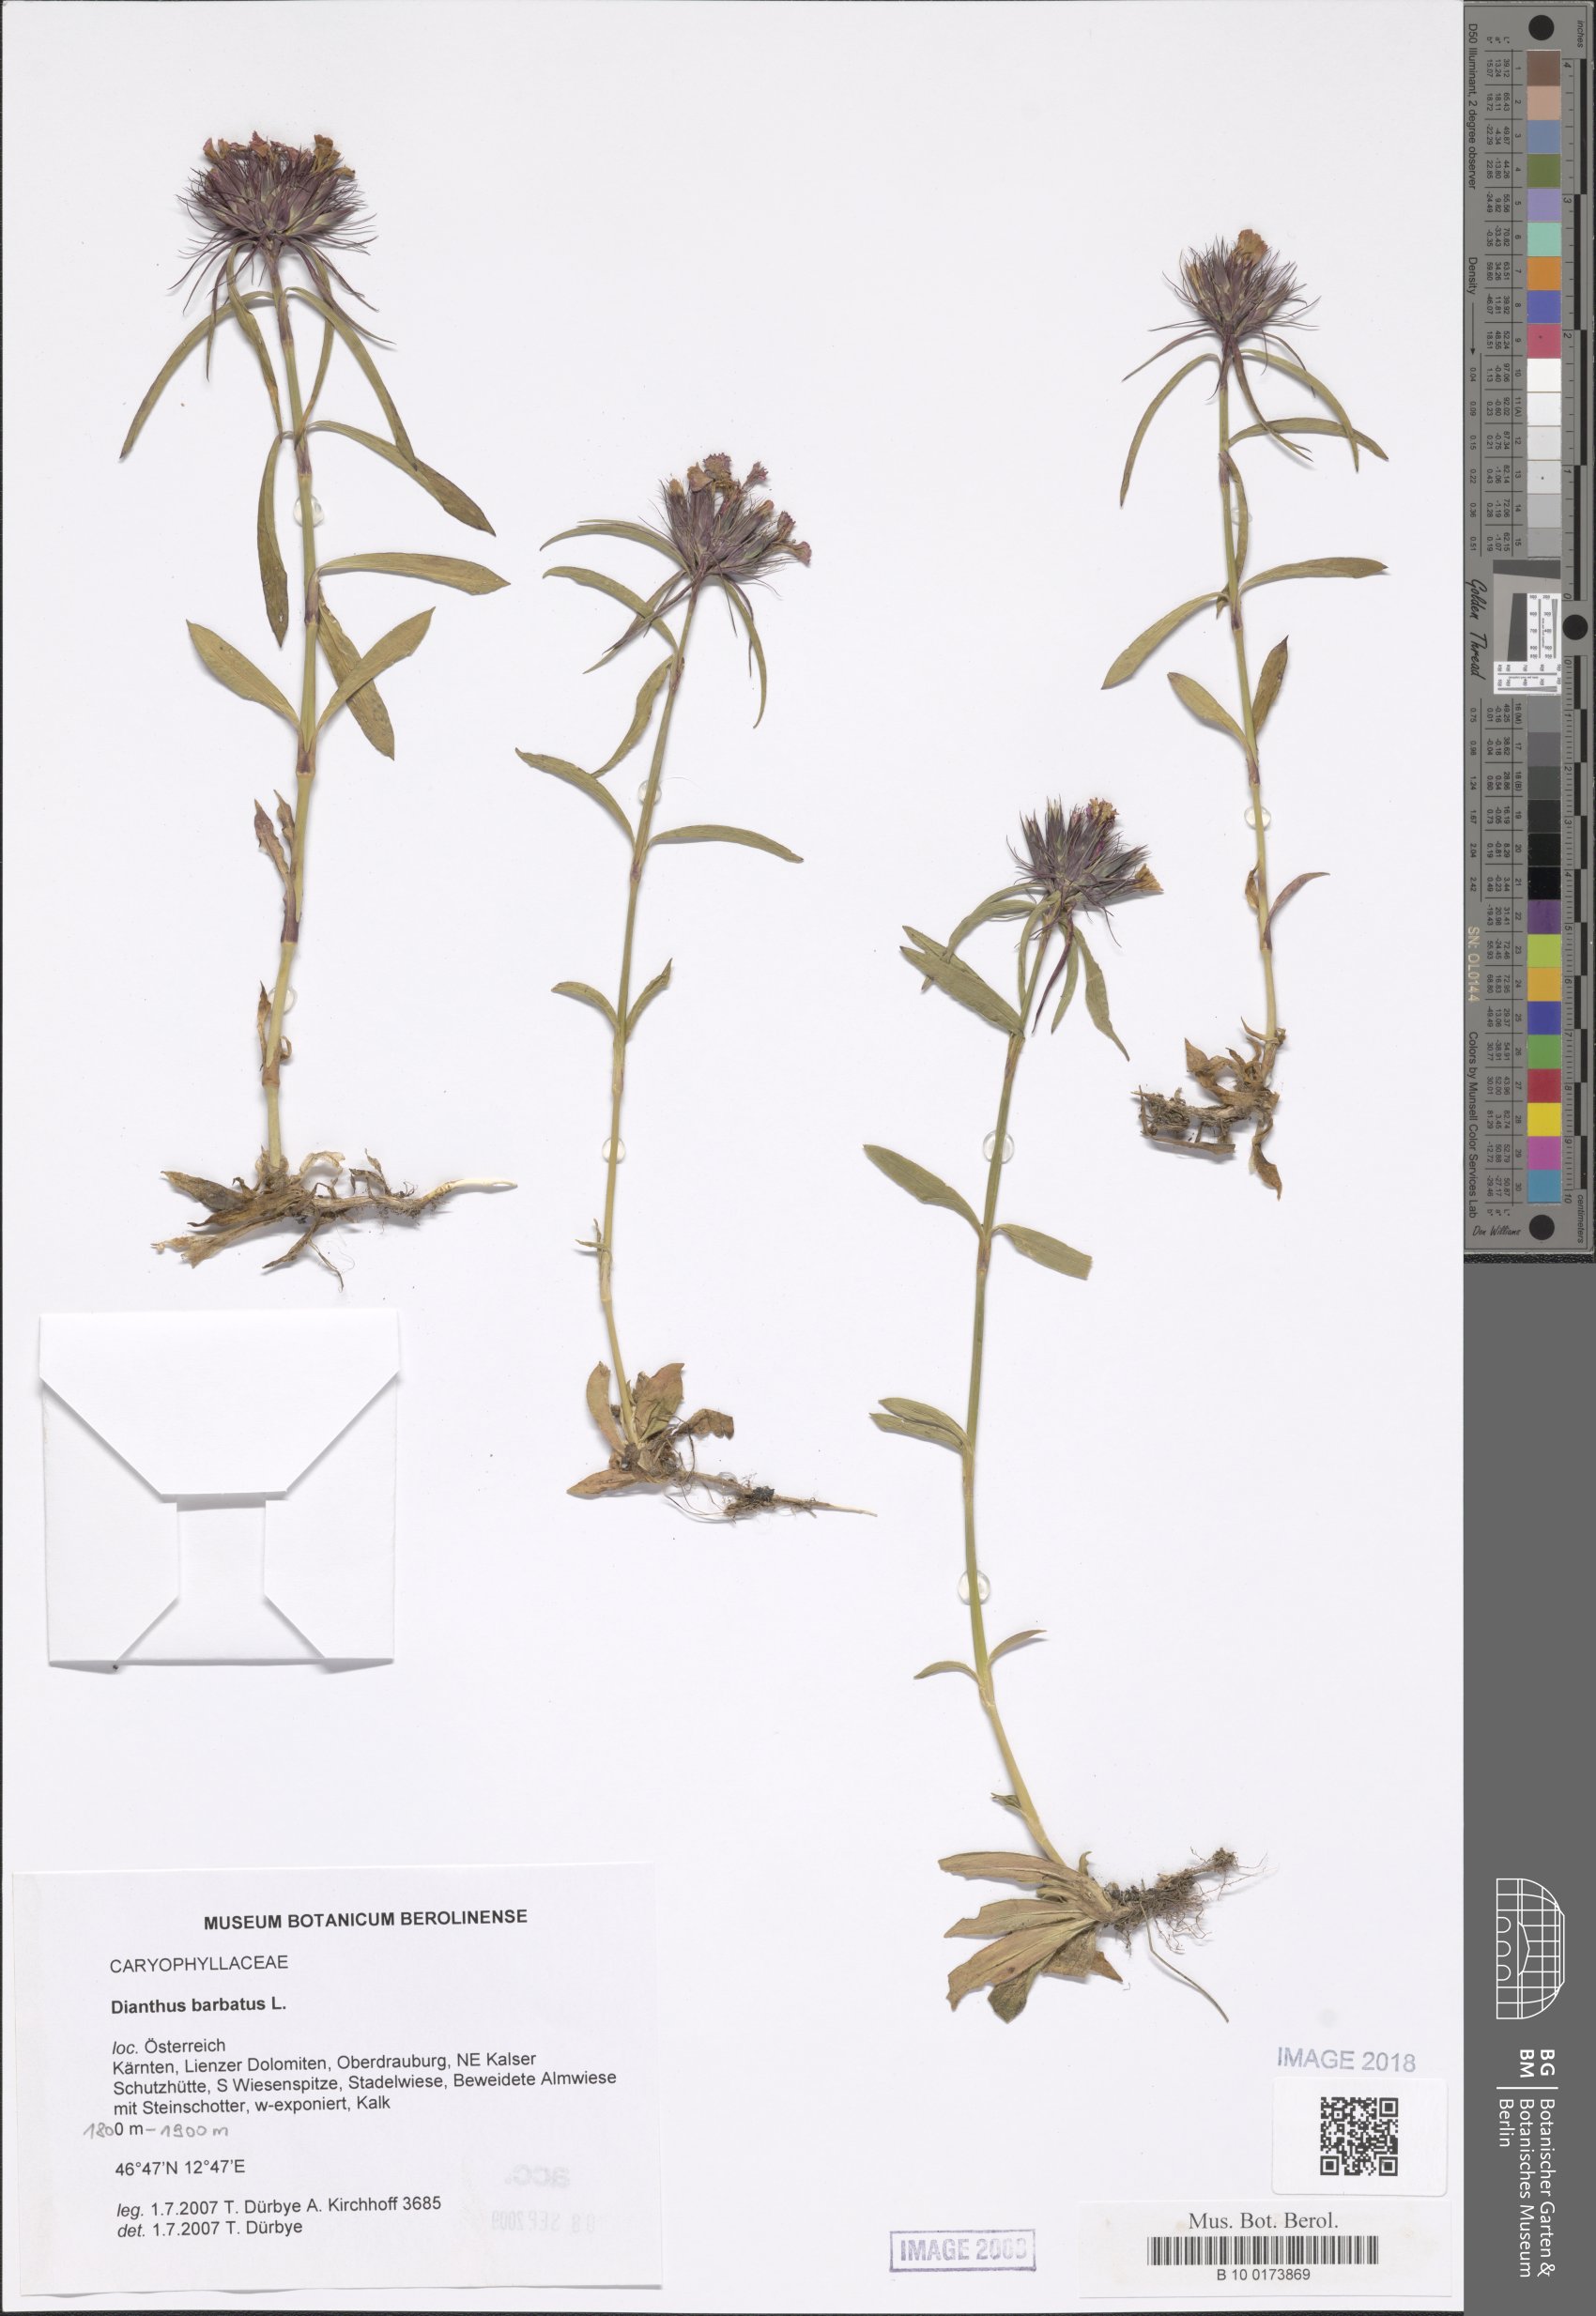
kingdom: Plantae
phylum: Tracheophyta
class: Magnoliopsida
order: Caryophyllales
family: Caryophyllaceae
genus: Dianthus
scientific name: Dianthus barbatus
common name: Sweet-william
